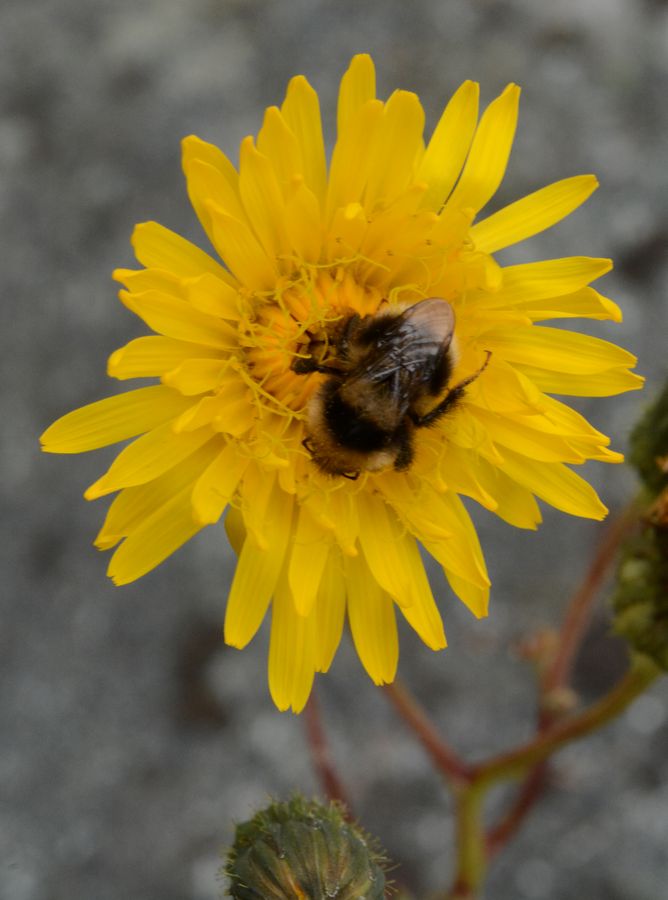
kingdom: Plantae
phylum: Tracheophyta
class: Magnoliopsida
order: Asterales
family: Asteraceae
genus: Sonchus
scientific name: Sonchus arvensis
